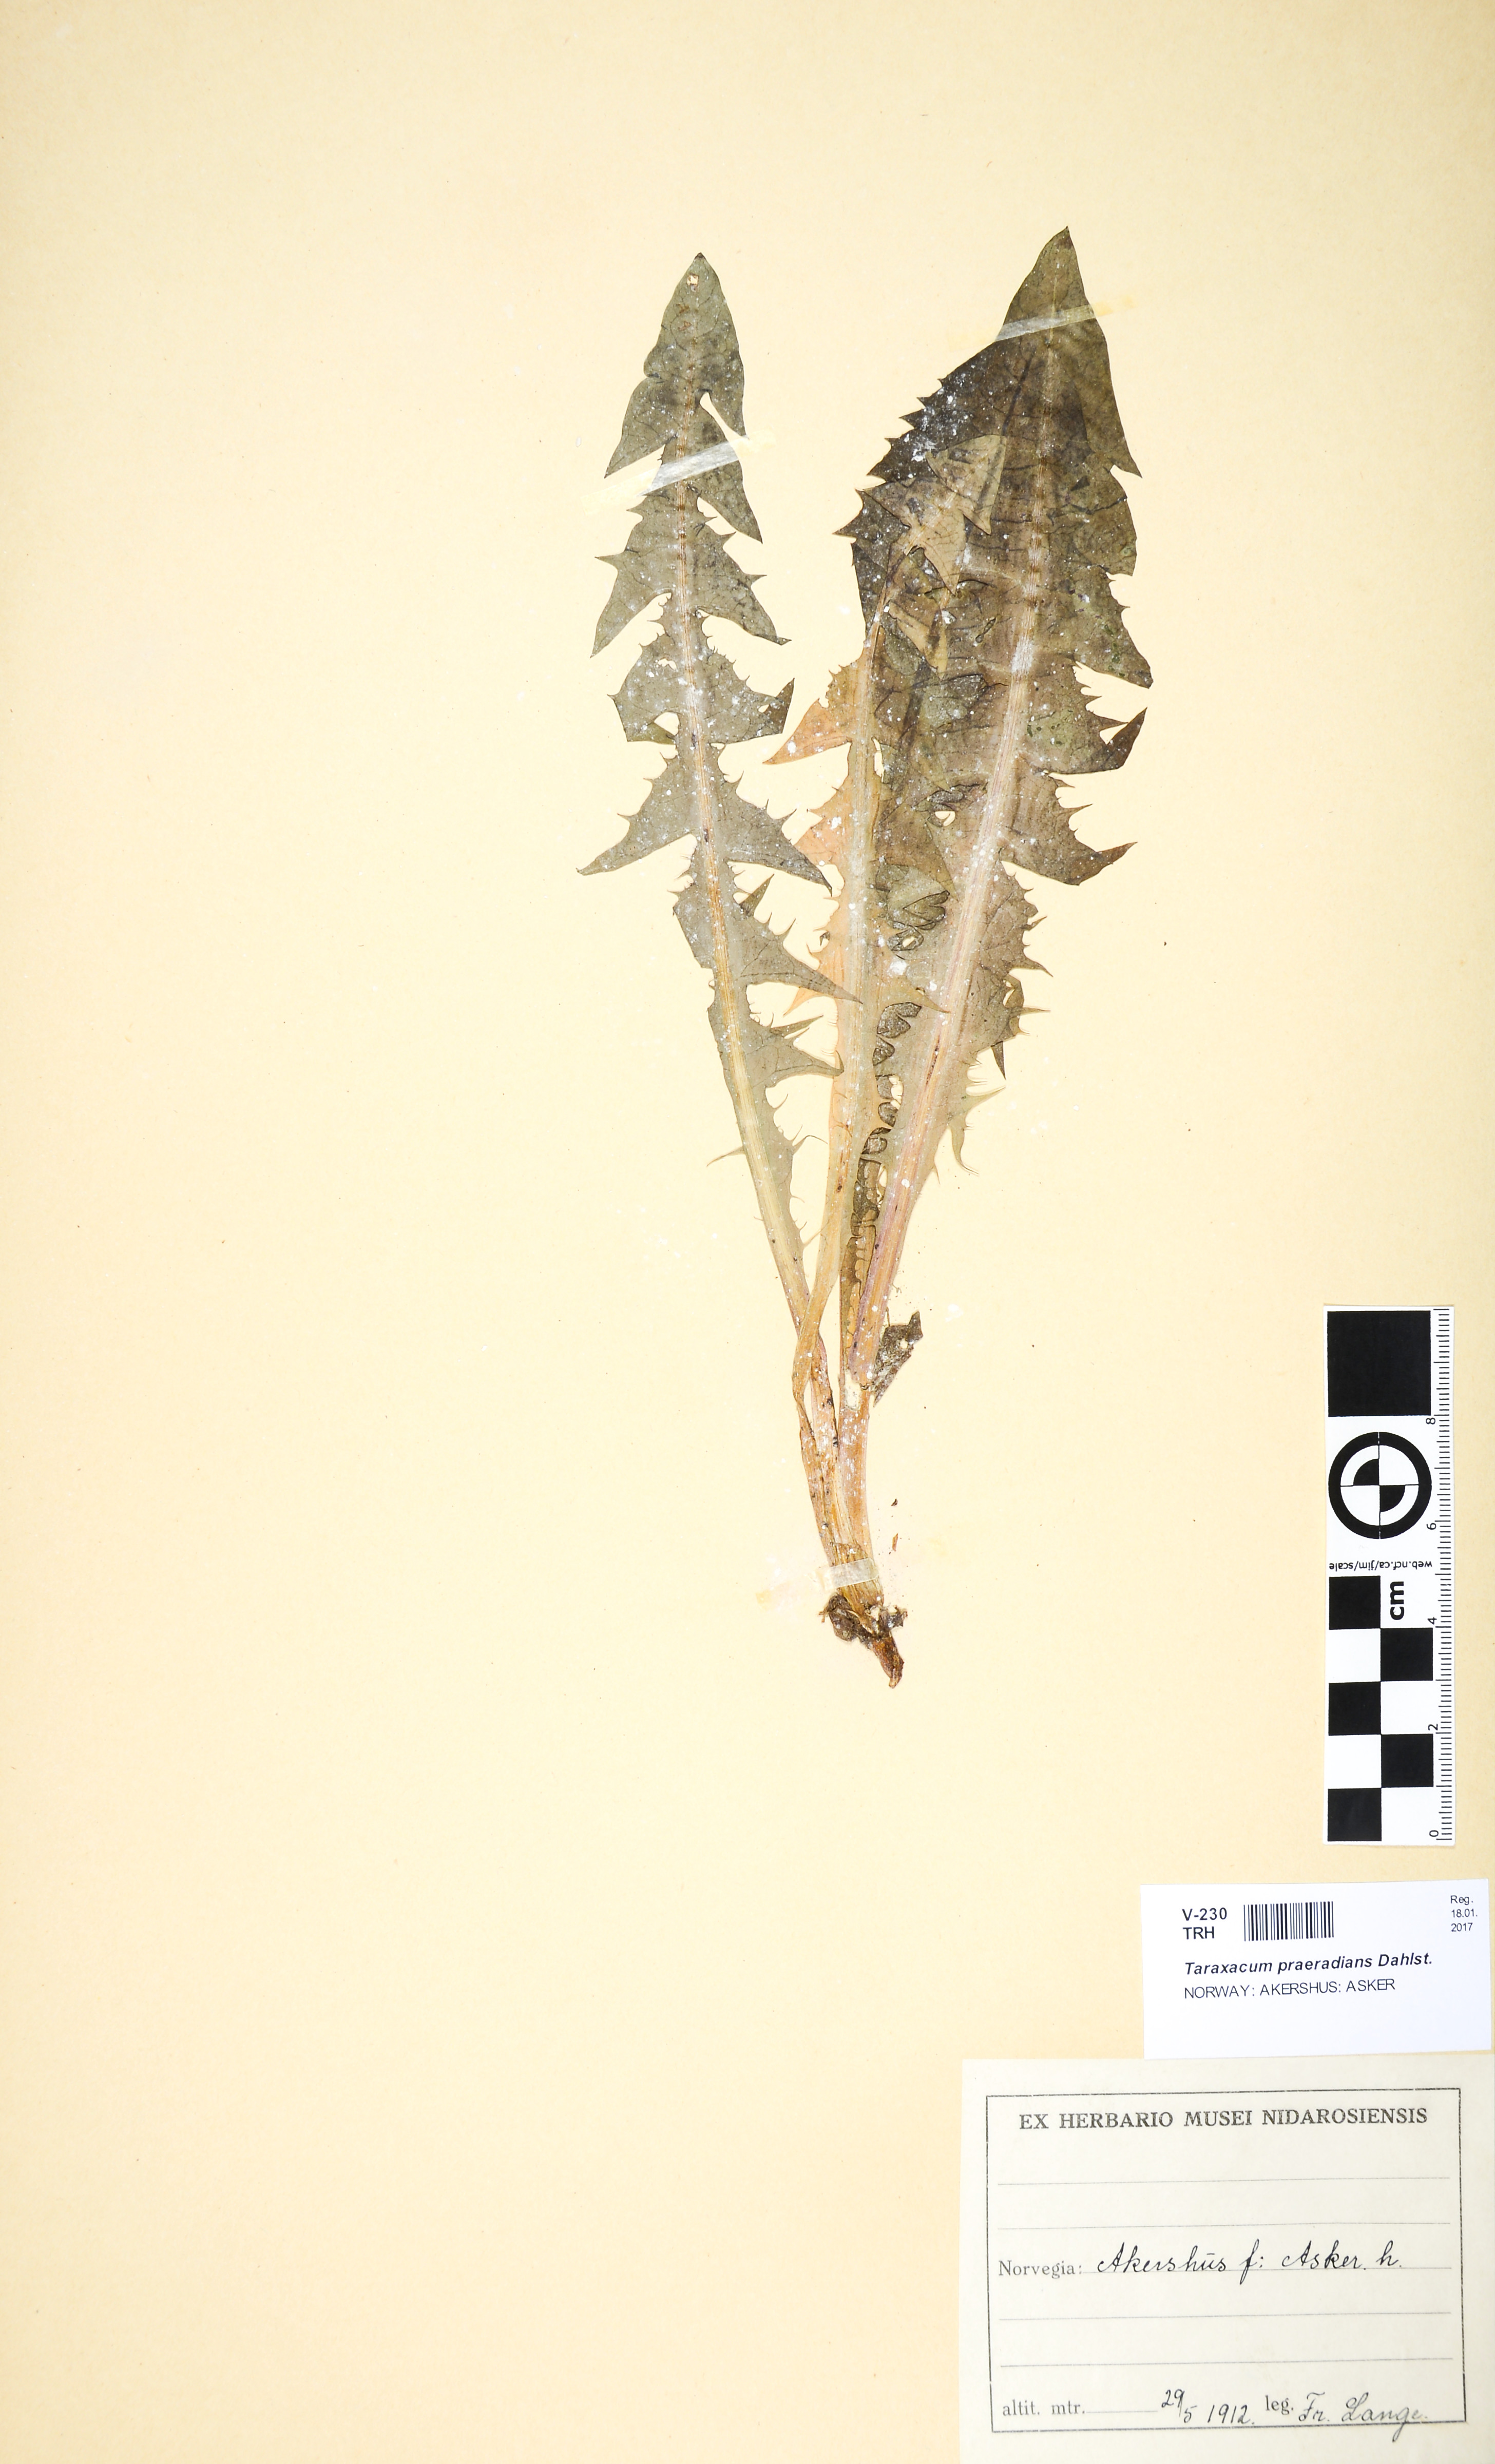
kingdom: Plantae
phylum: Tracheophyta
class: Magnoliopsida
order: Asterales
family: Asteraceae
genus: Taraxacum
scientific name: Taraxacum praeradians
